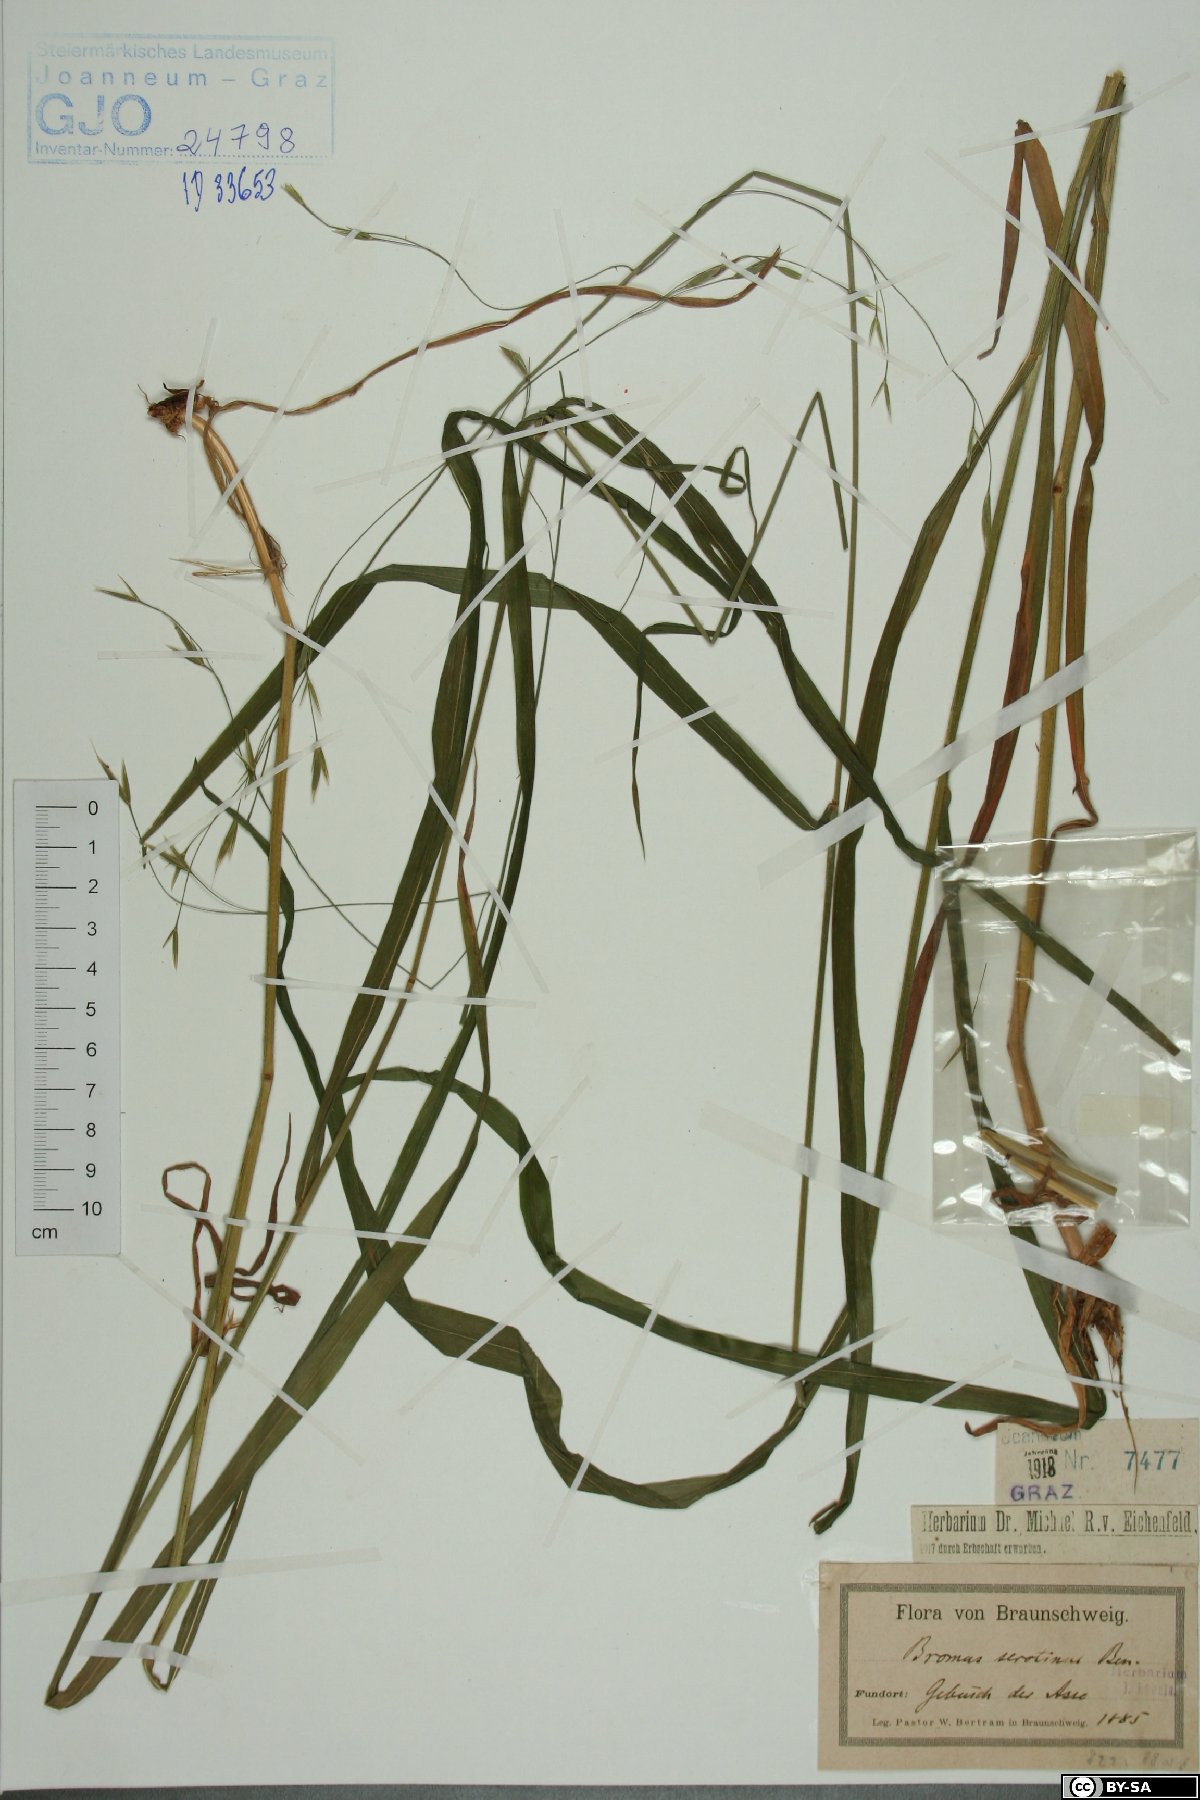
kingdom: Plantae
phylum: Tracheophyta
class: Liliopsida
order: Poales
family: Poaceae
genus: Bromus
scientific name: Bromus ramosus
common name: Hairy brome
